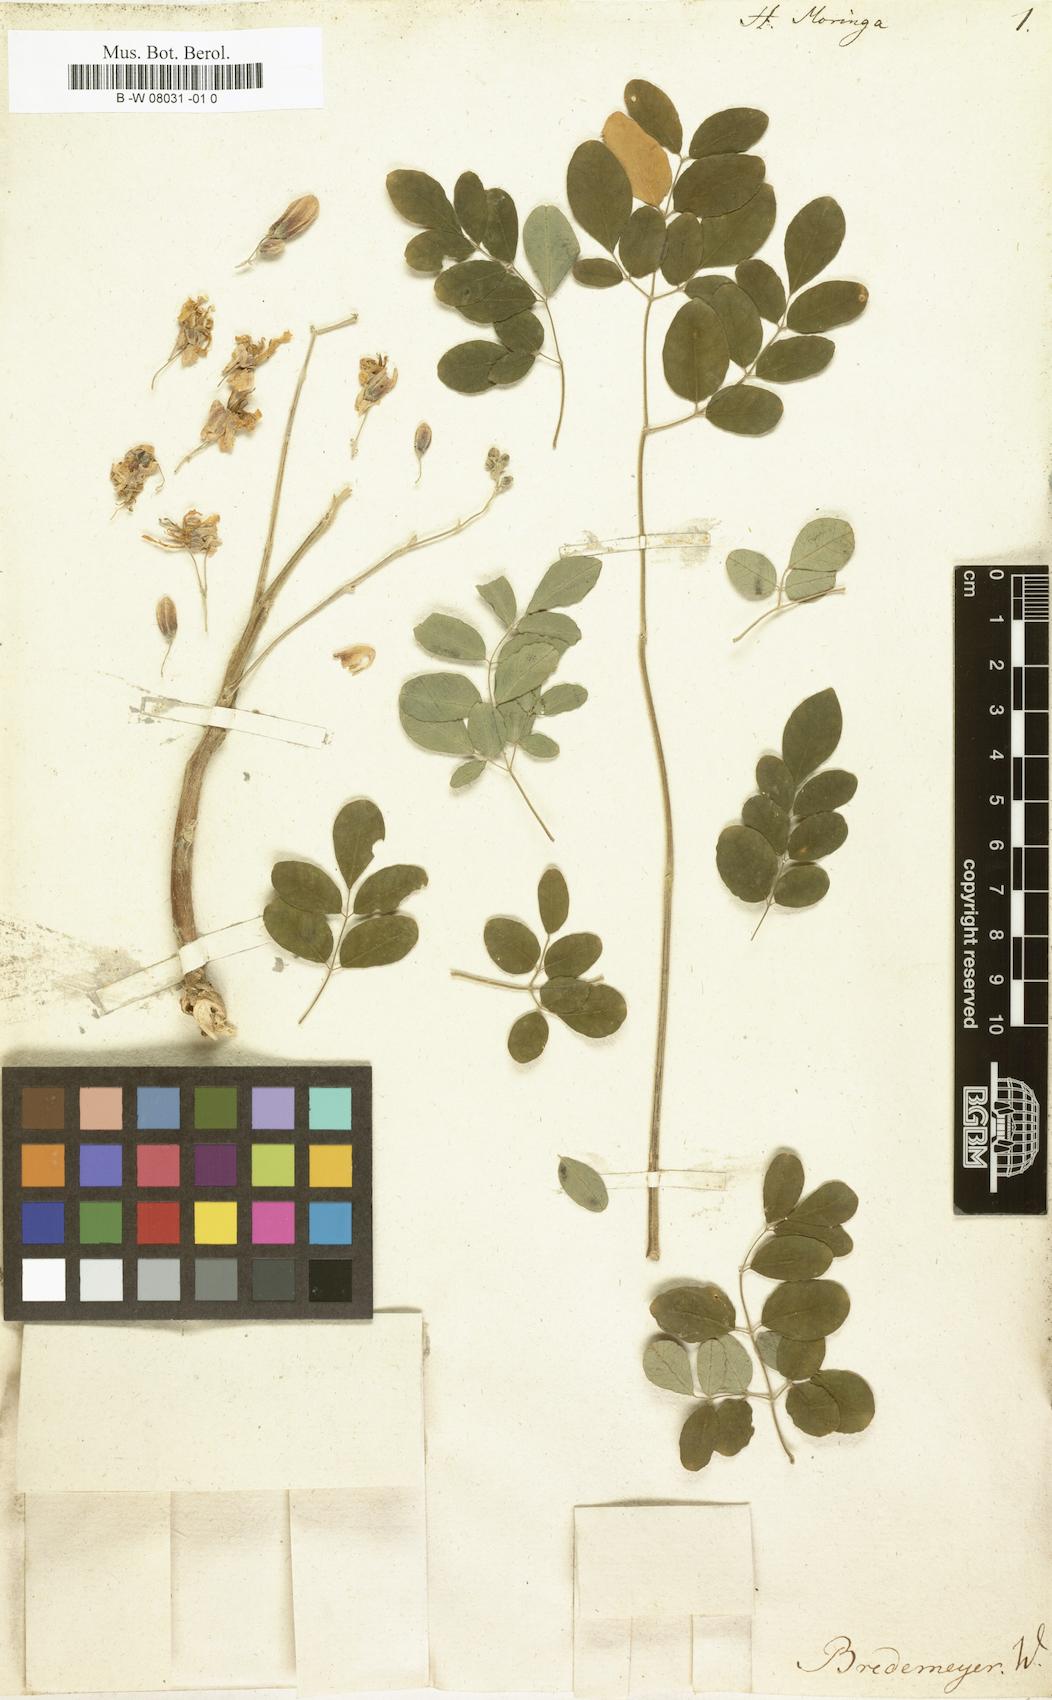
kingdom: Plantae
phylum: Tracheophyta
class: Magnoliopsida
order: Brassicales
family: Moringaceae
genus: Moringa
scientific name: Moringa oleifera
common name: Horseradish-tree
